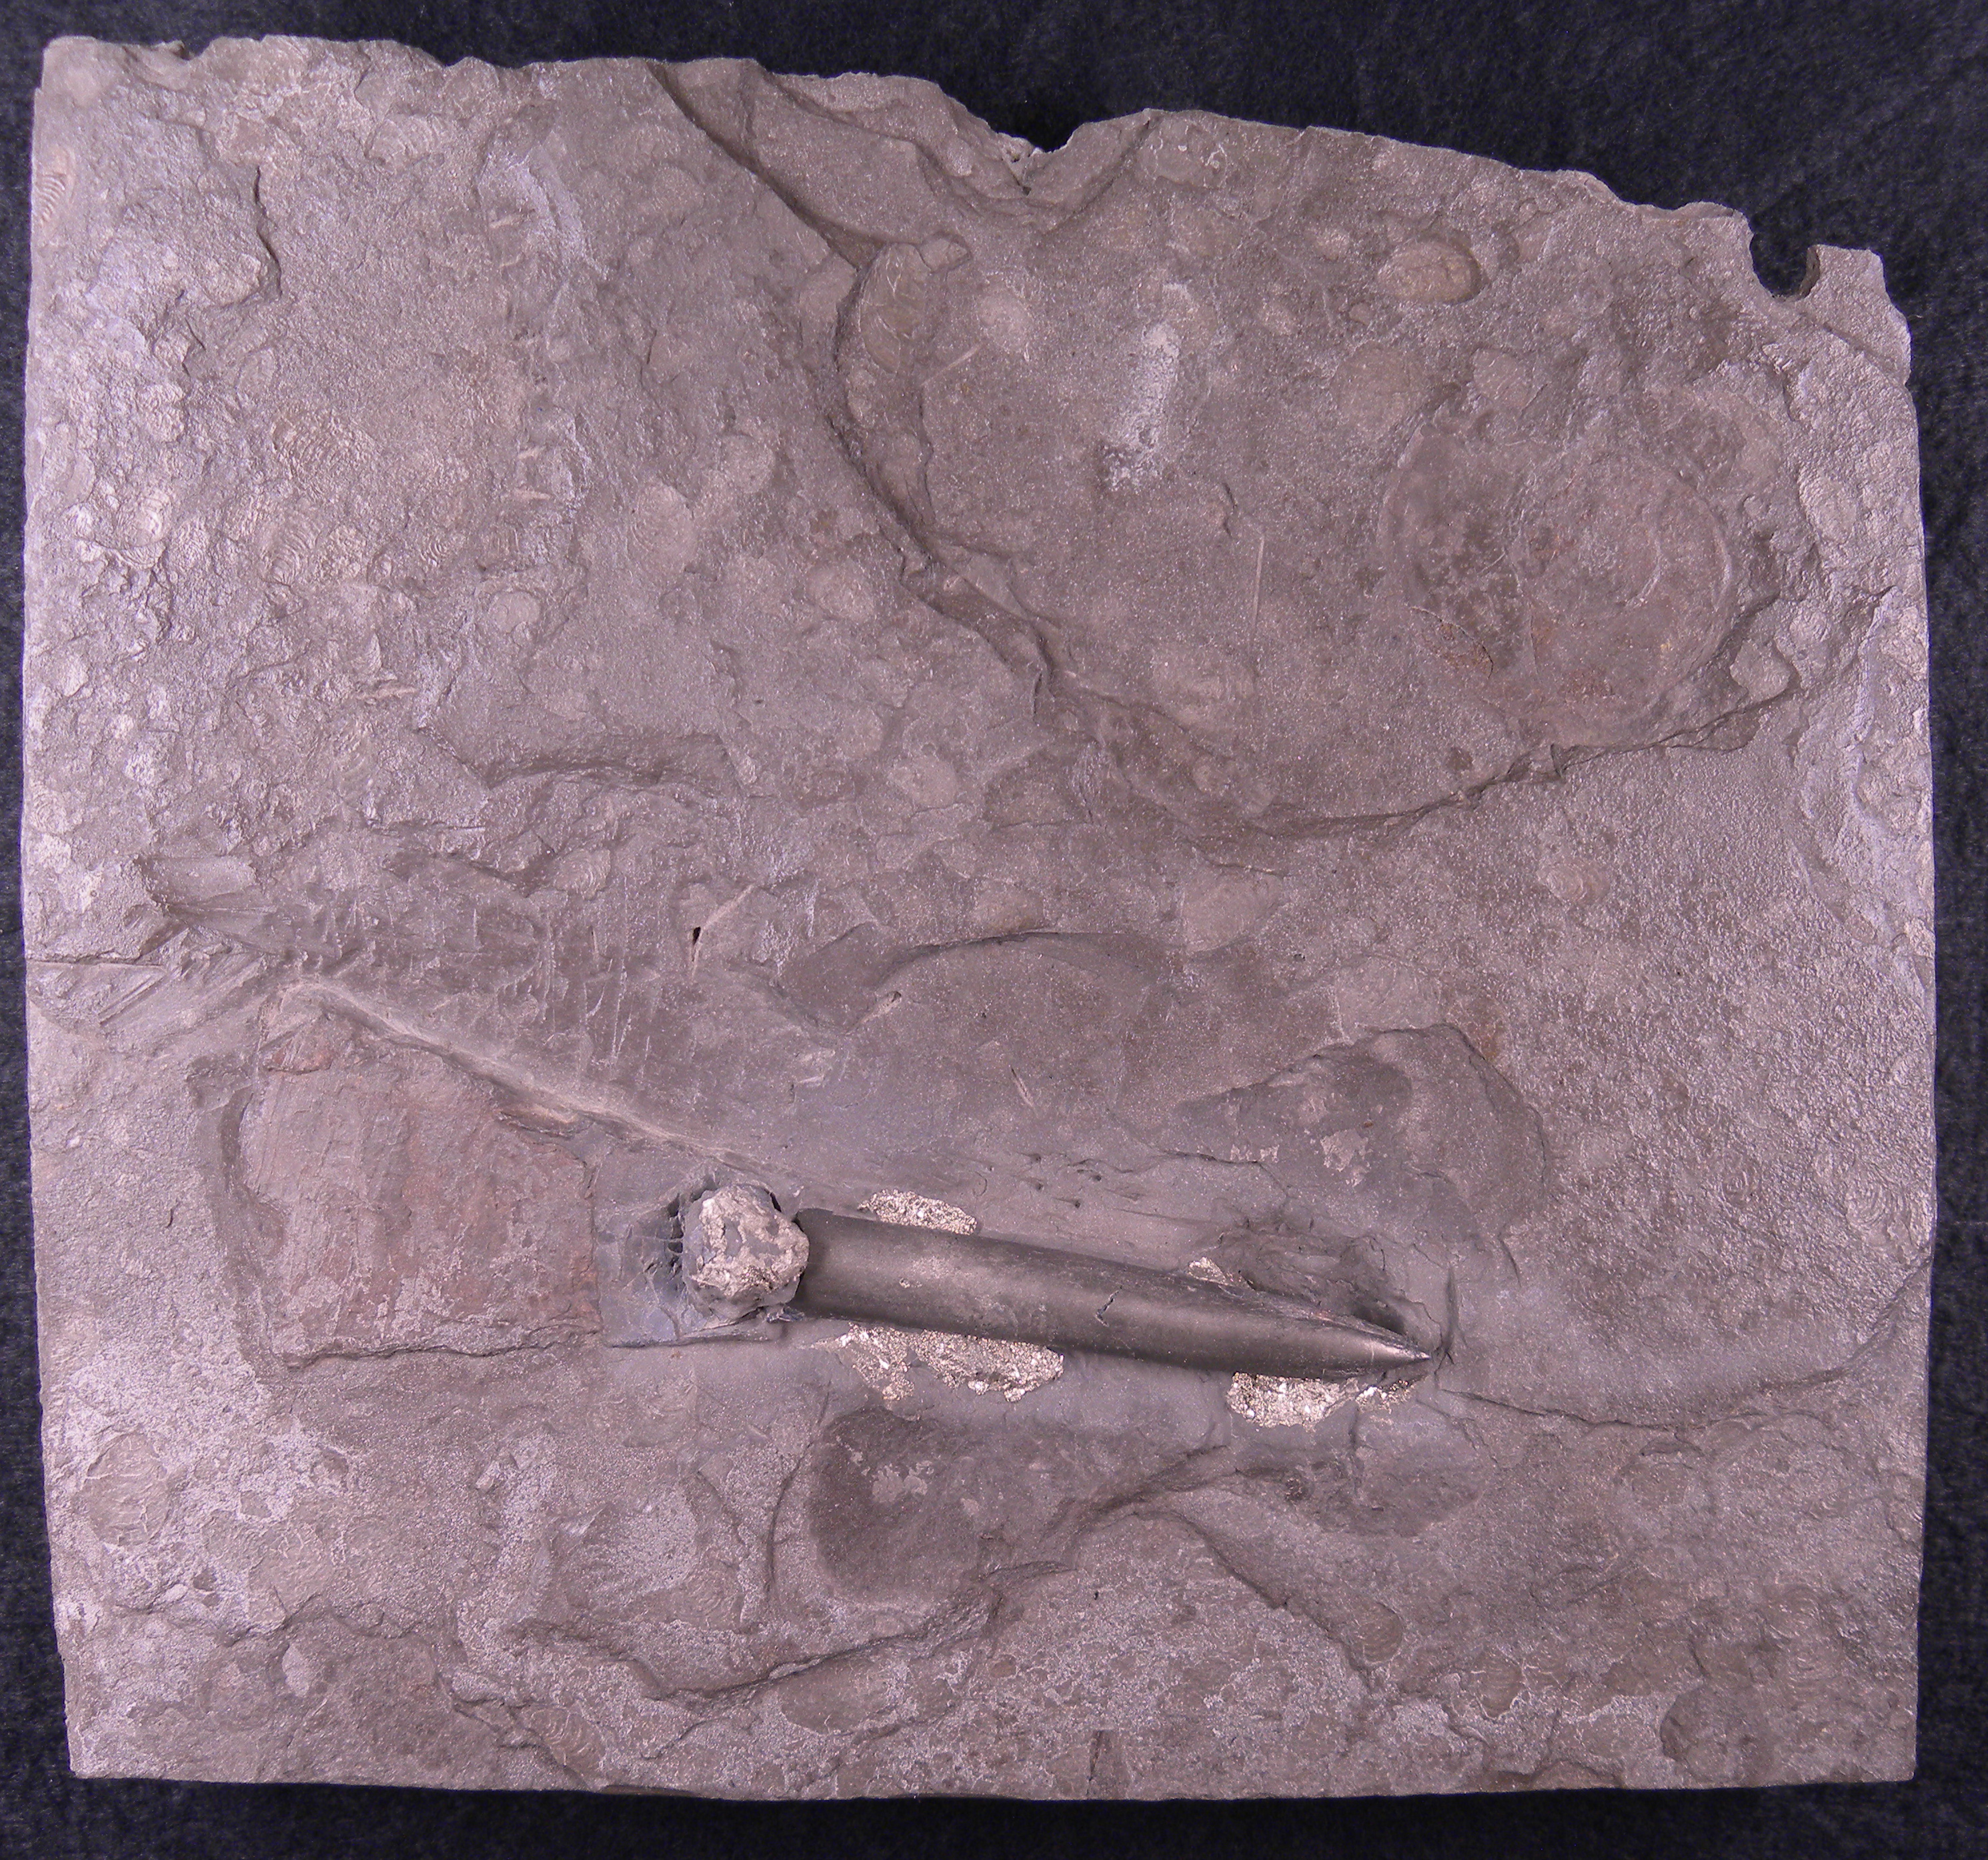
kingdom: Animalia
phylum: Mollusca
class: Cephalopoda
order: Belemnitida
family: Megateuthididae
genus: Acrocoelites
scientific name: Acrocoelites
